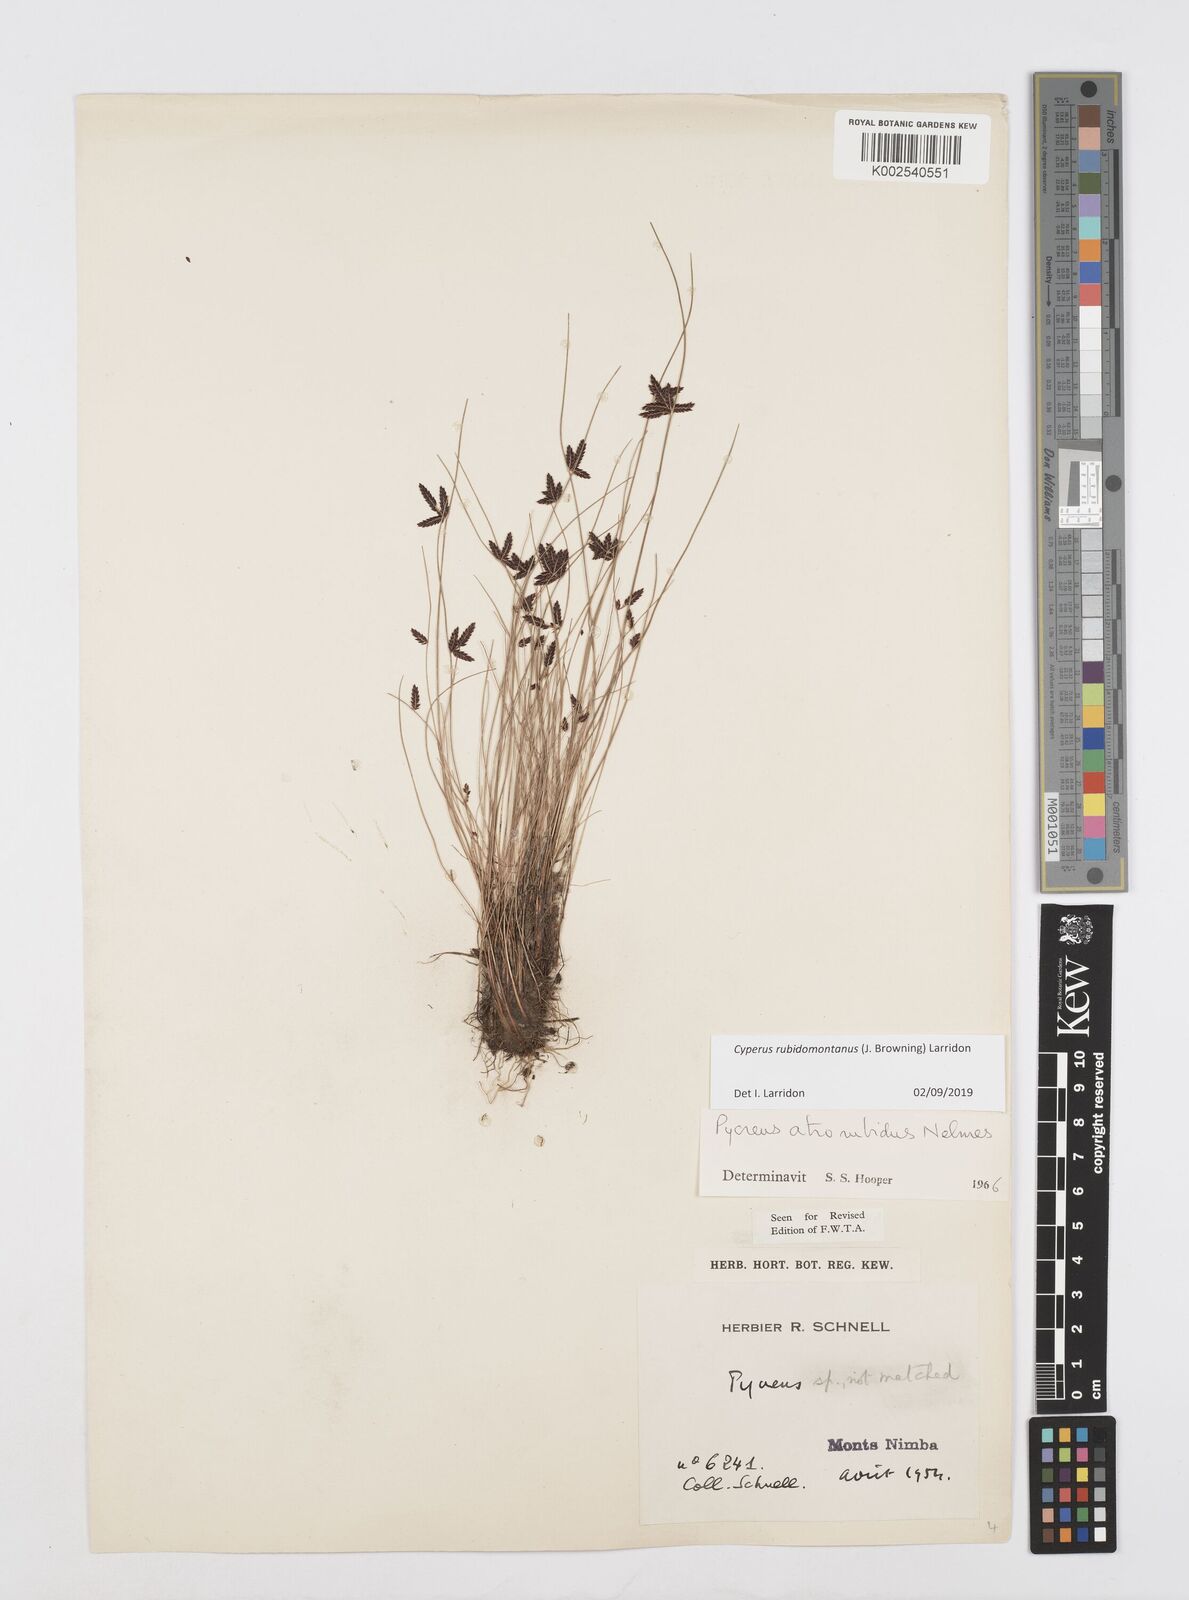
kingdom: Plantae
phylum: Tracheophyta
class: Liliopsida
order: Poales
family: Cyperaceae
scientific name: Cyperaceae
